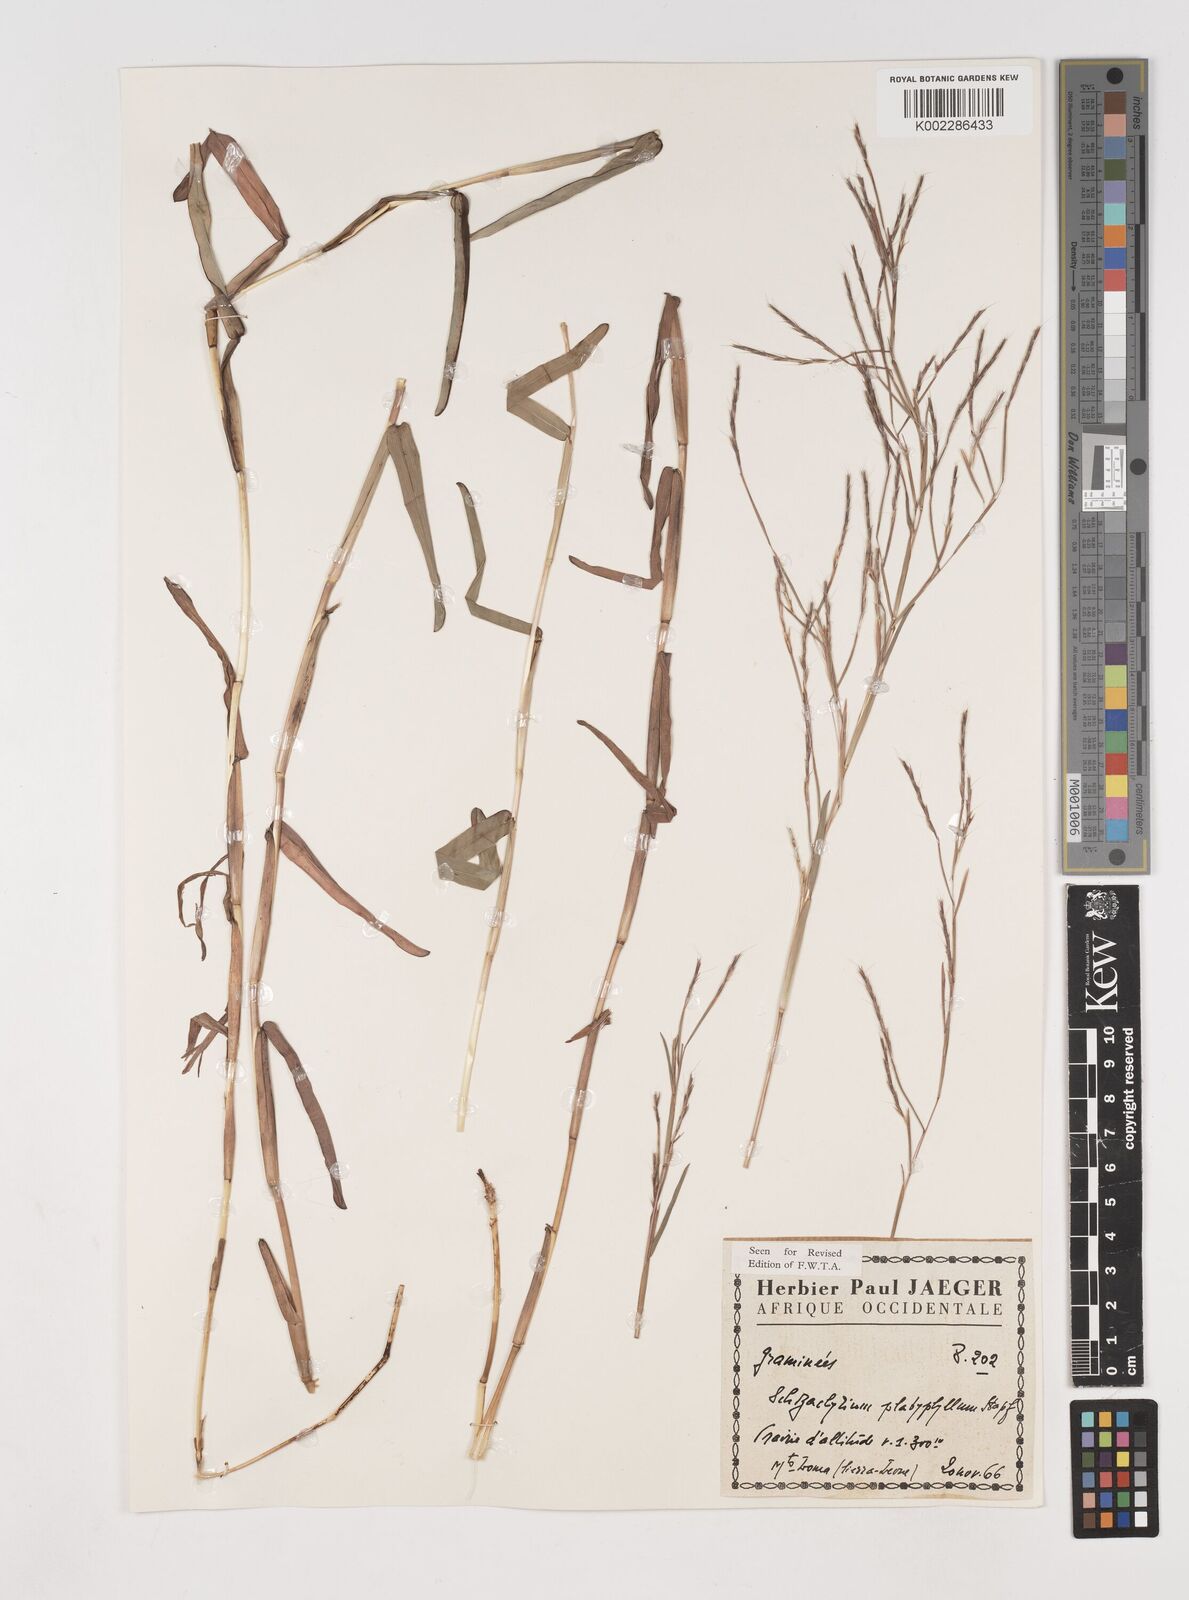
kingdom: Plantae
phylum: Tracheophyta
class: Liliopsida
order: Poales
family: Poaceae
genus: Schizachyrium
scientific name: Schizachyrium platyphyllum
